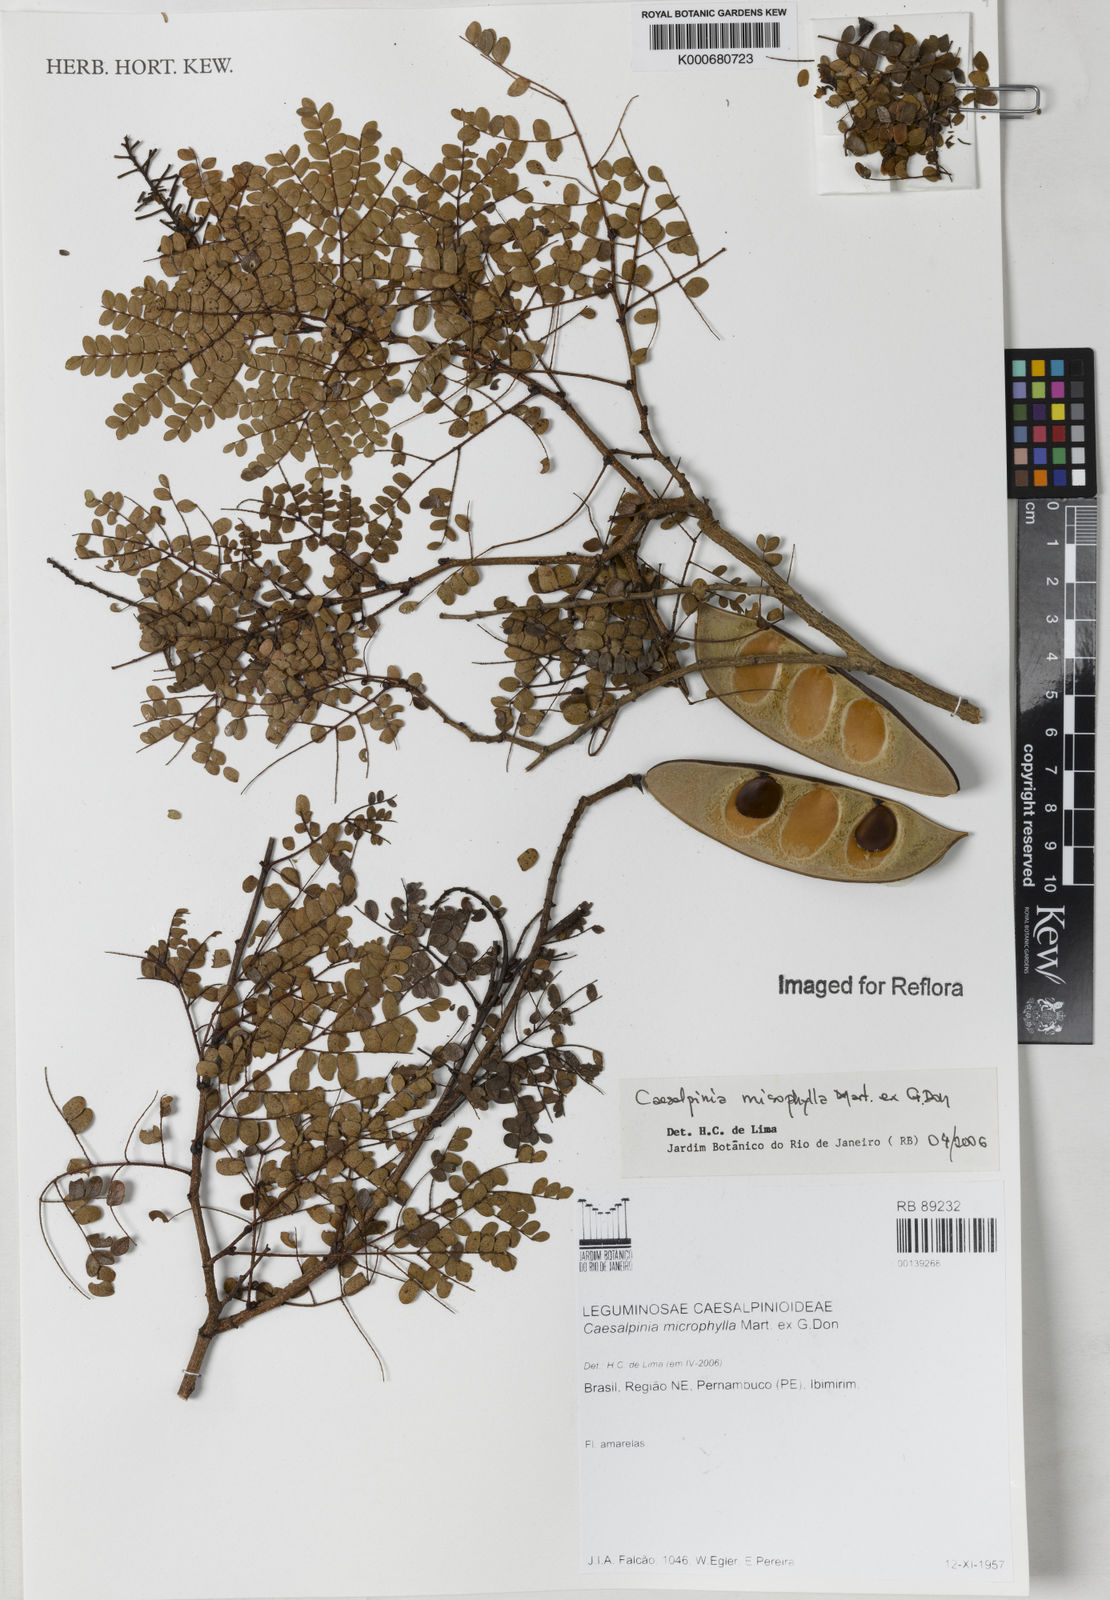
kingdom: Plantae
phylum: Tracheophyta
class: Magnoliopsida
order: Fabales
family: Fabaceae
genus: Cenostigma
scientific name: Cenostigma microphyllum
